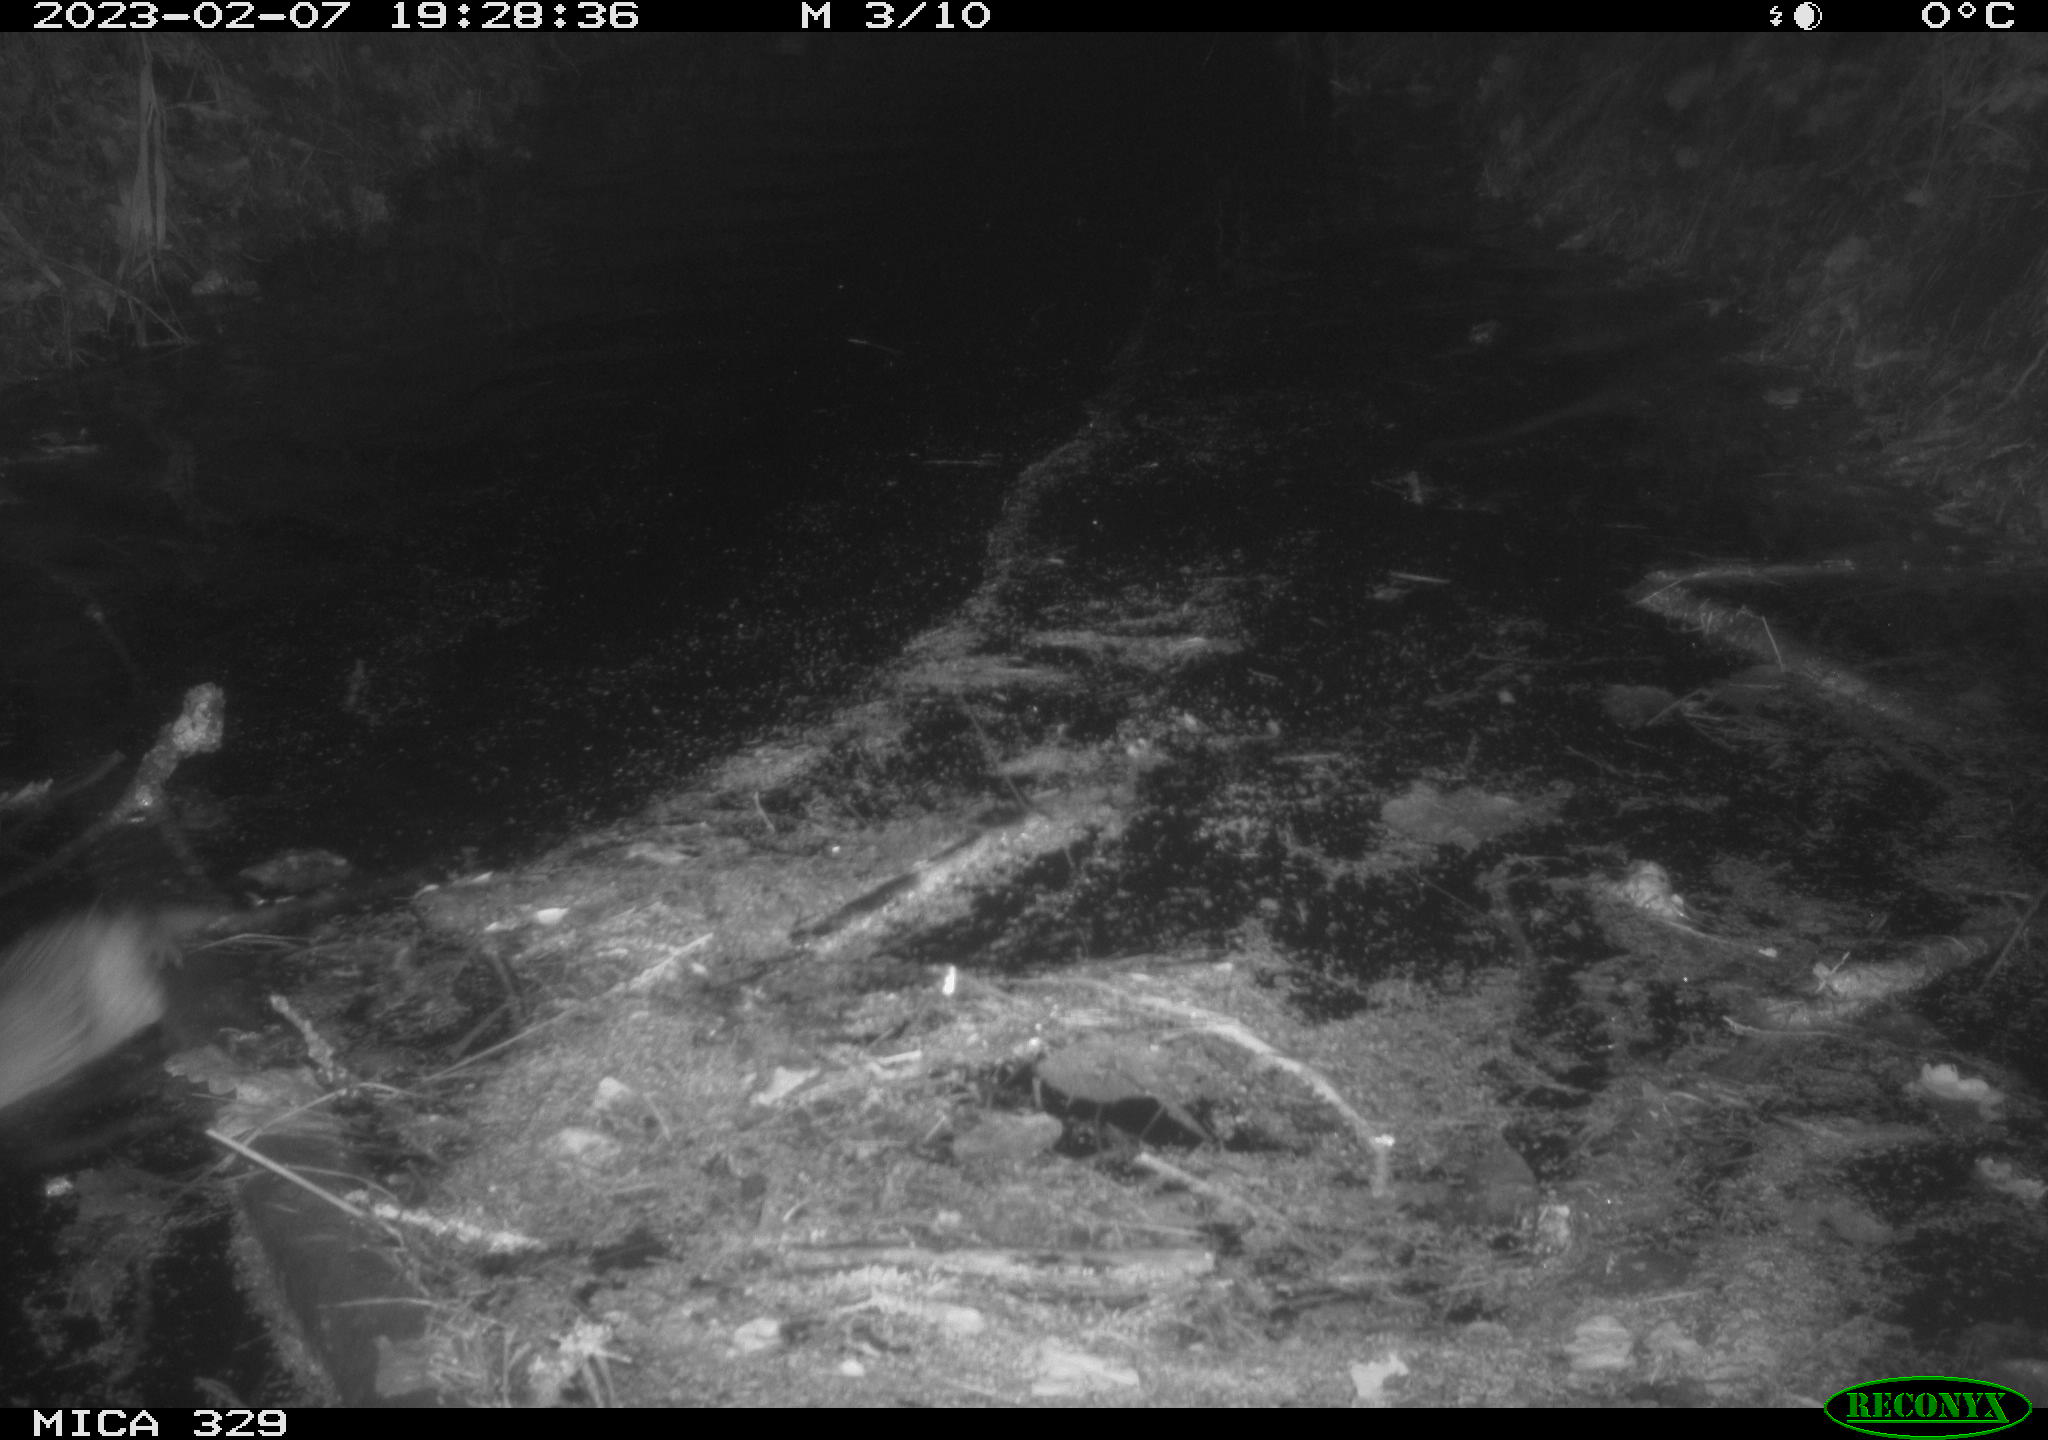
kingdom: Animalia
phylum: Chordata
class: Mammalia
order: Rodentia
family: Cricetidae
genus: Ondatra
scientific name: Ondatra zibethicus
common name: Muskrat
